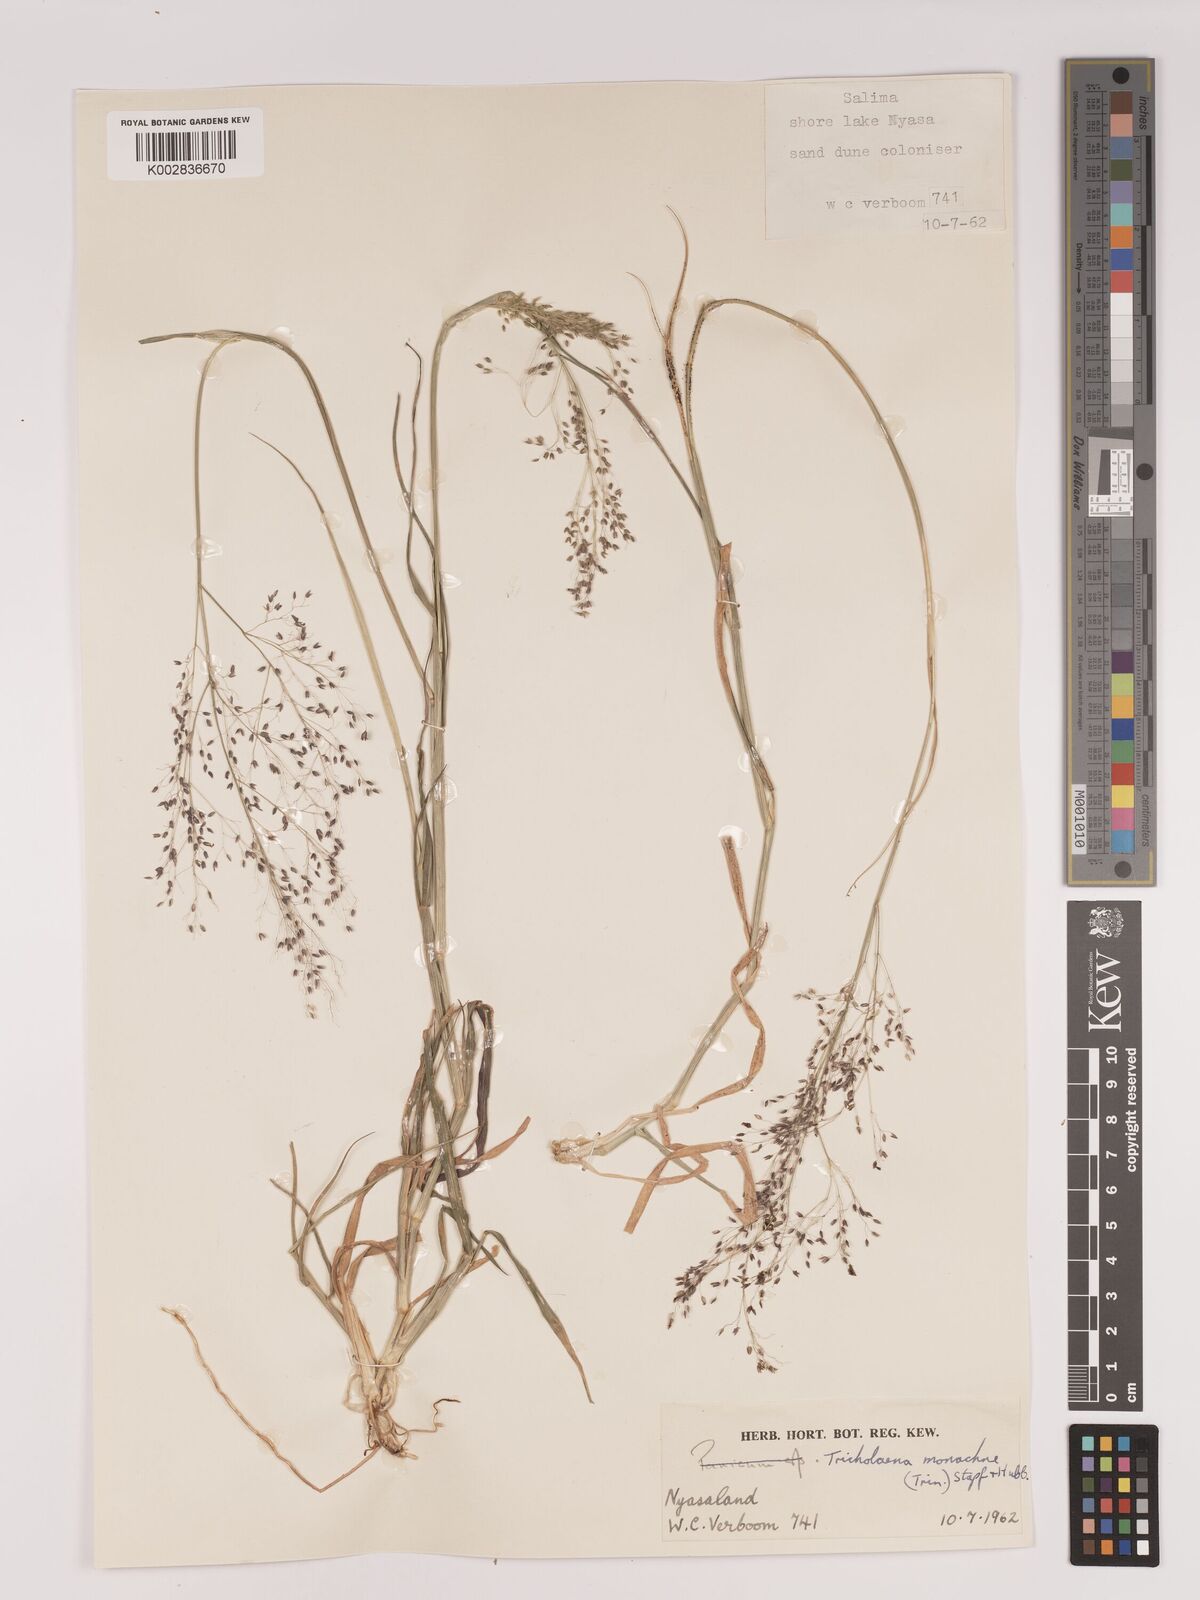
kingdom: Plantae
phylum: Tracheophyta
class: Liliopsida
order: Poales
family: Poaceae
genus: Tricholaena
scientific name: Tricholaena monachne
